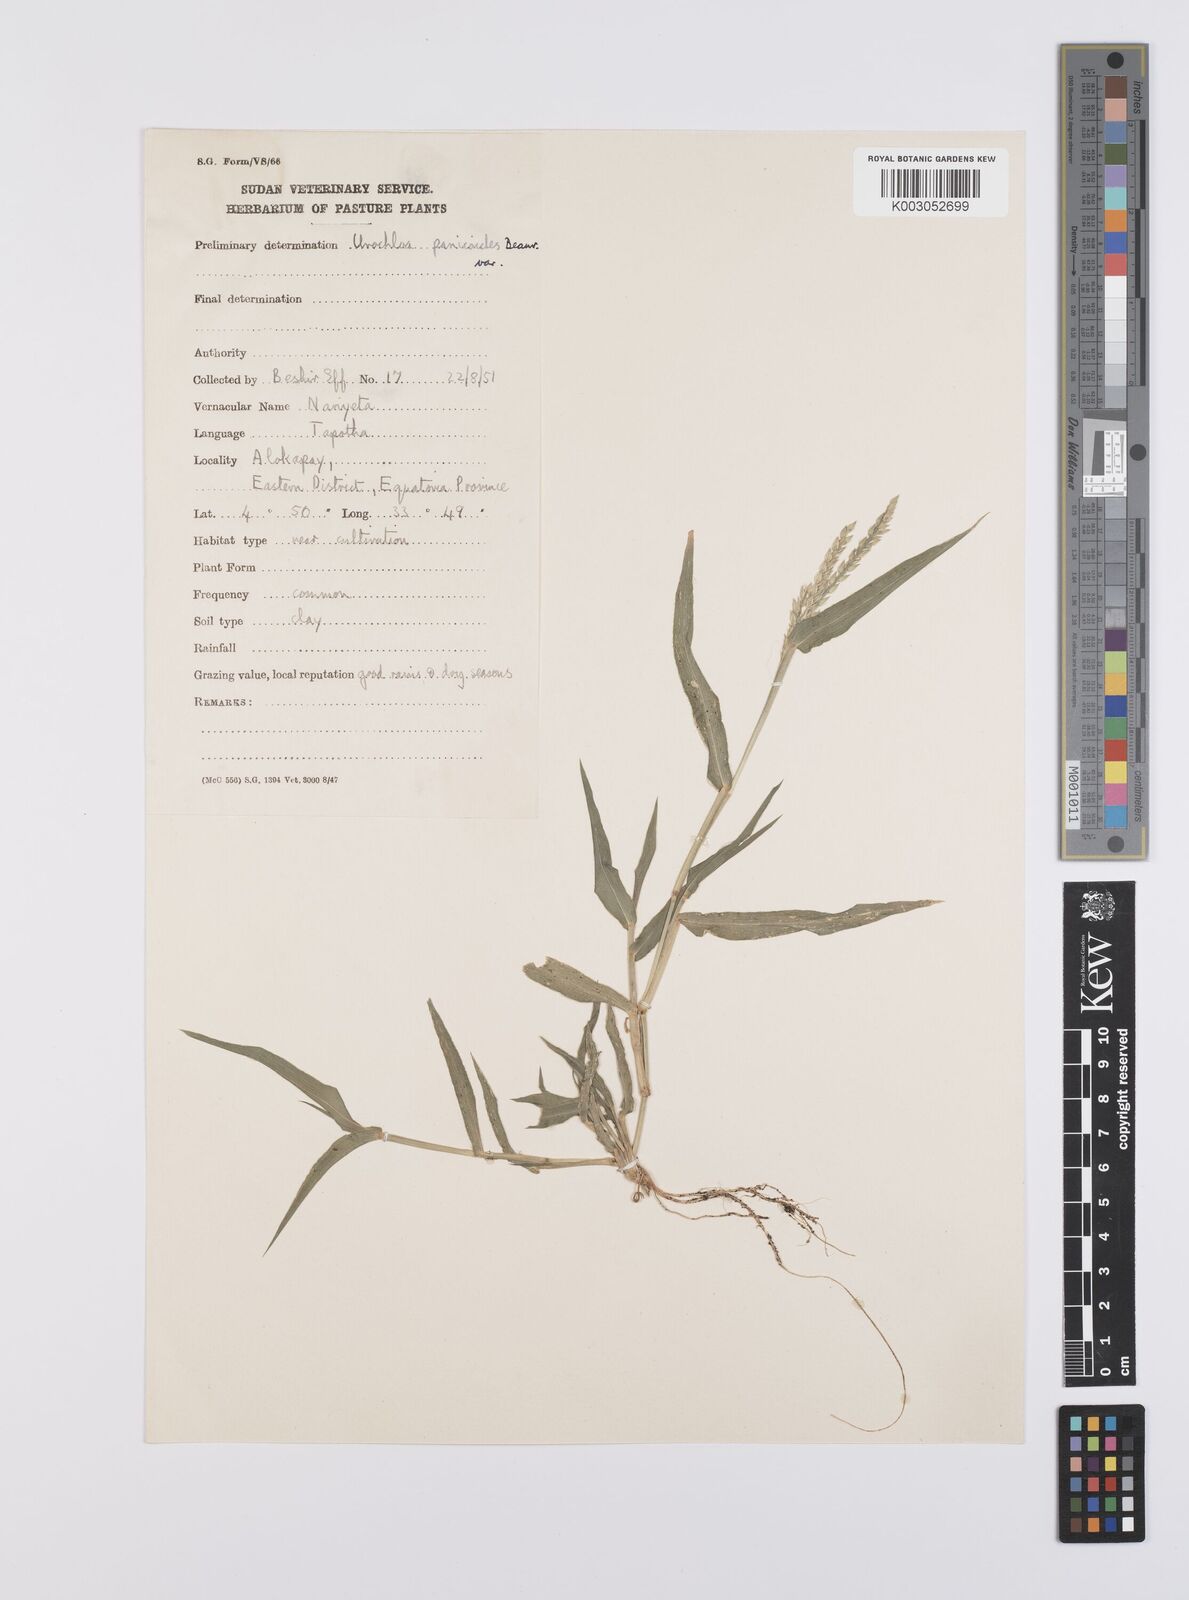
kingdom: Plantae
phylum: Tracheophyta
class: Liliopsida
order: Poales
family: Poaceae
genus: Urochloa
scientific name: Urochloa panicoides
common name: Sharp-flowered signal-grass
